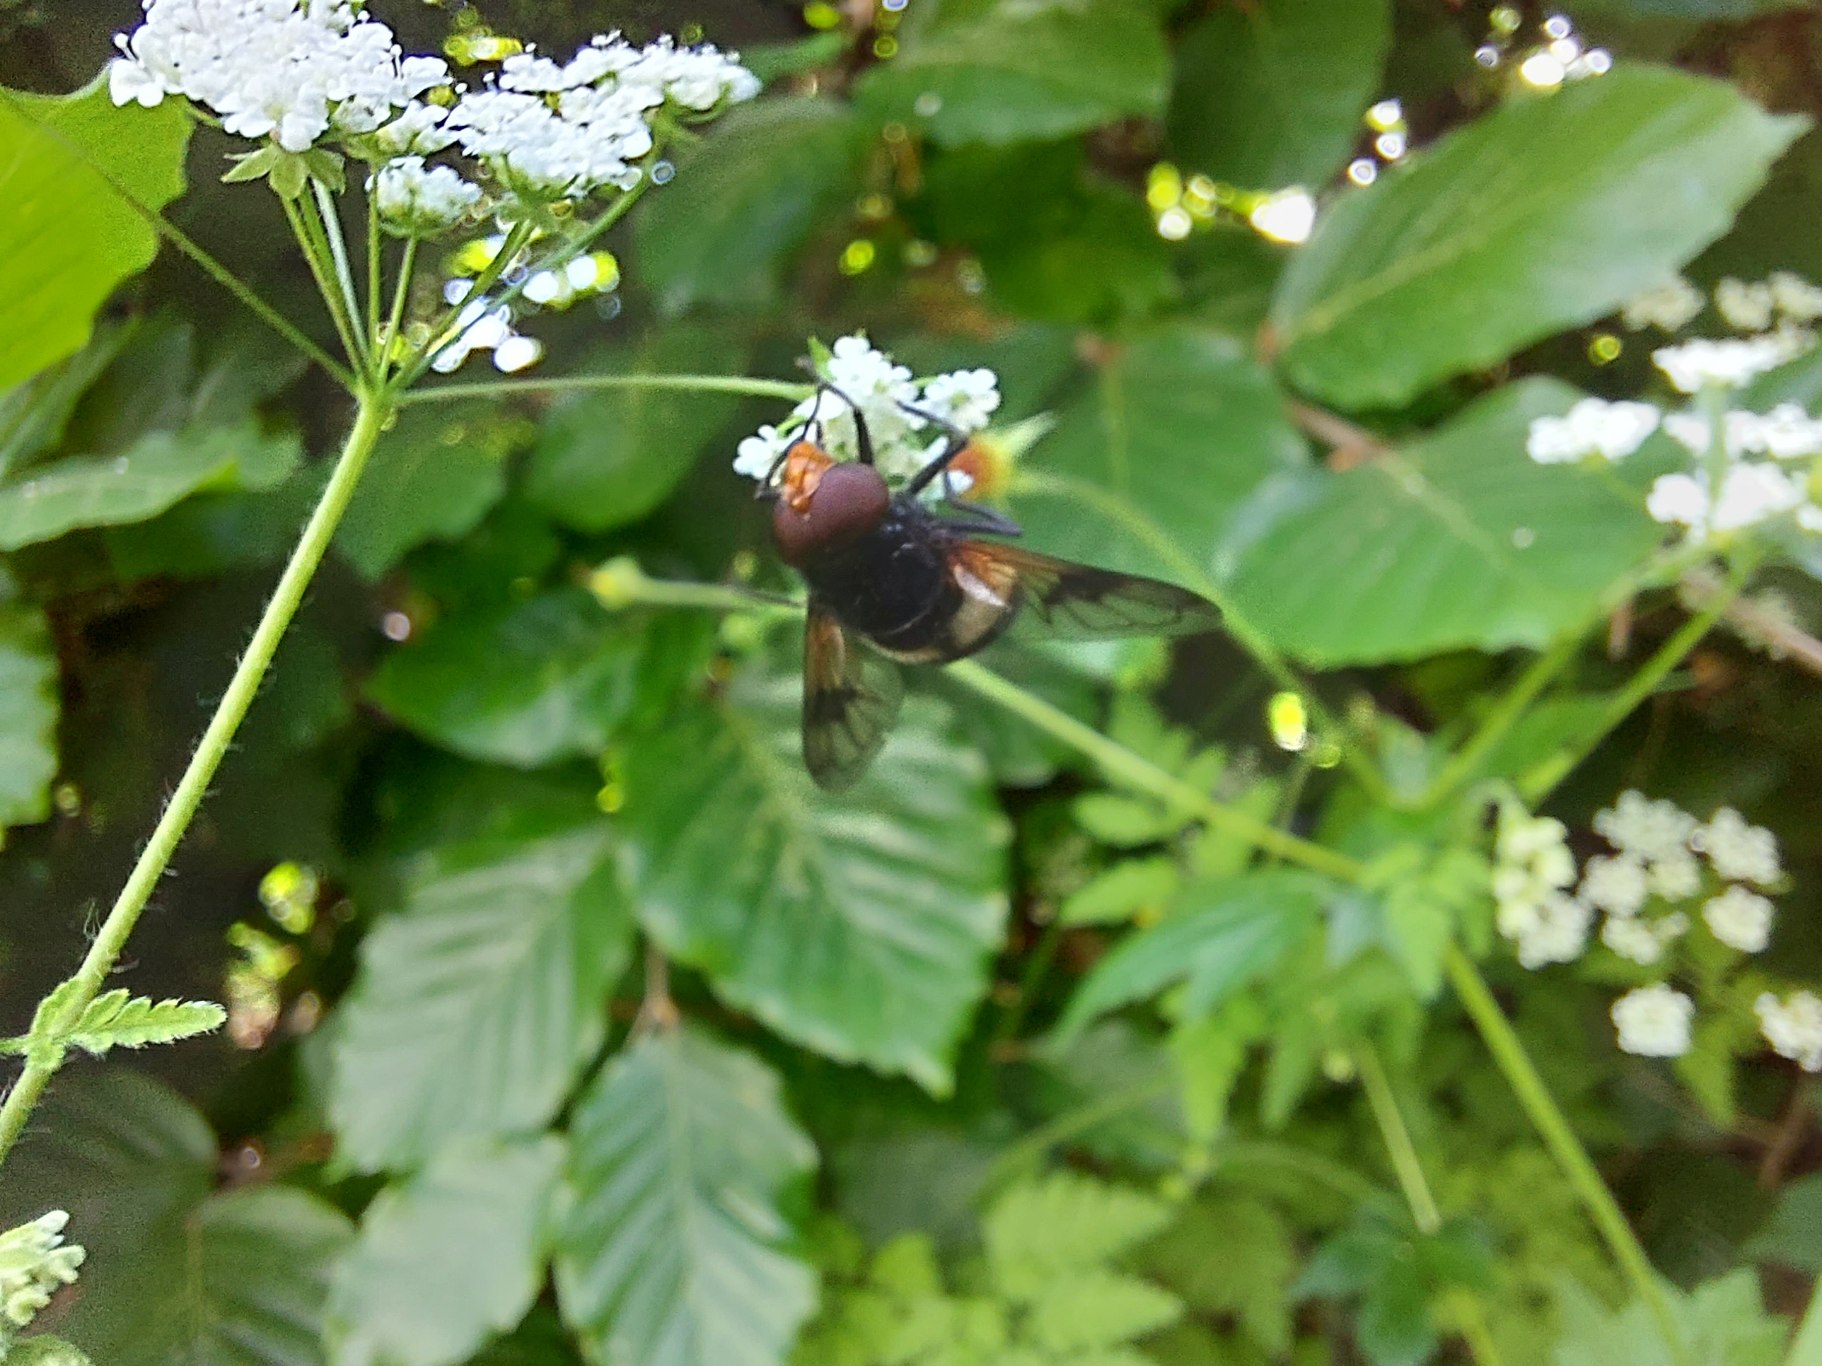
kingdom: Animalia
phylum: Arthropoda
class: Insecta
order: Diptera
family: Syrphidae
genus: Volucella
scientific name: Volucella pellucens
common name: Hvidbåndet humlesvirreflue
